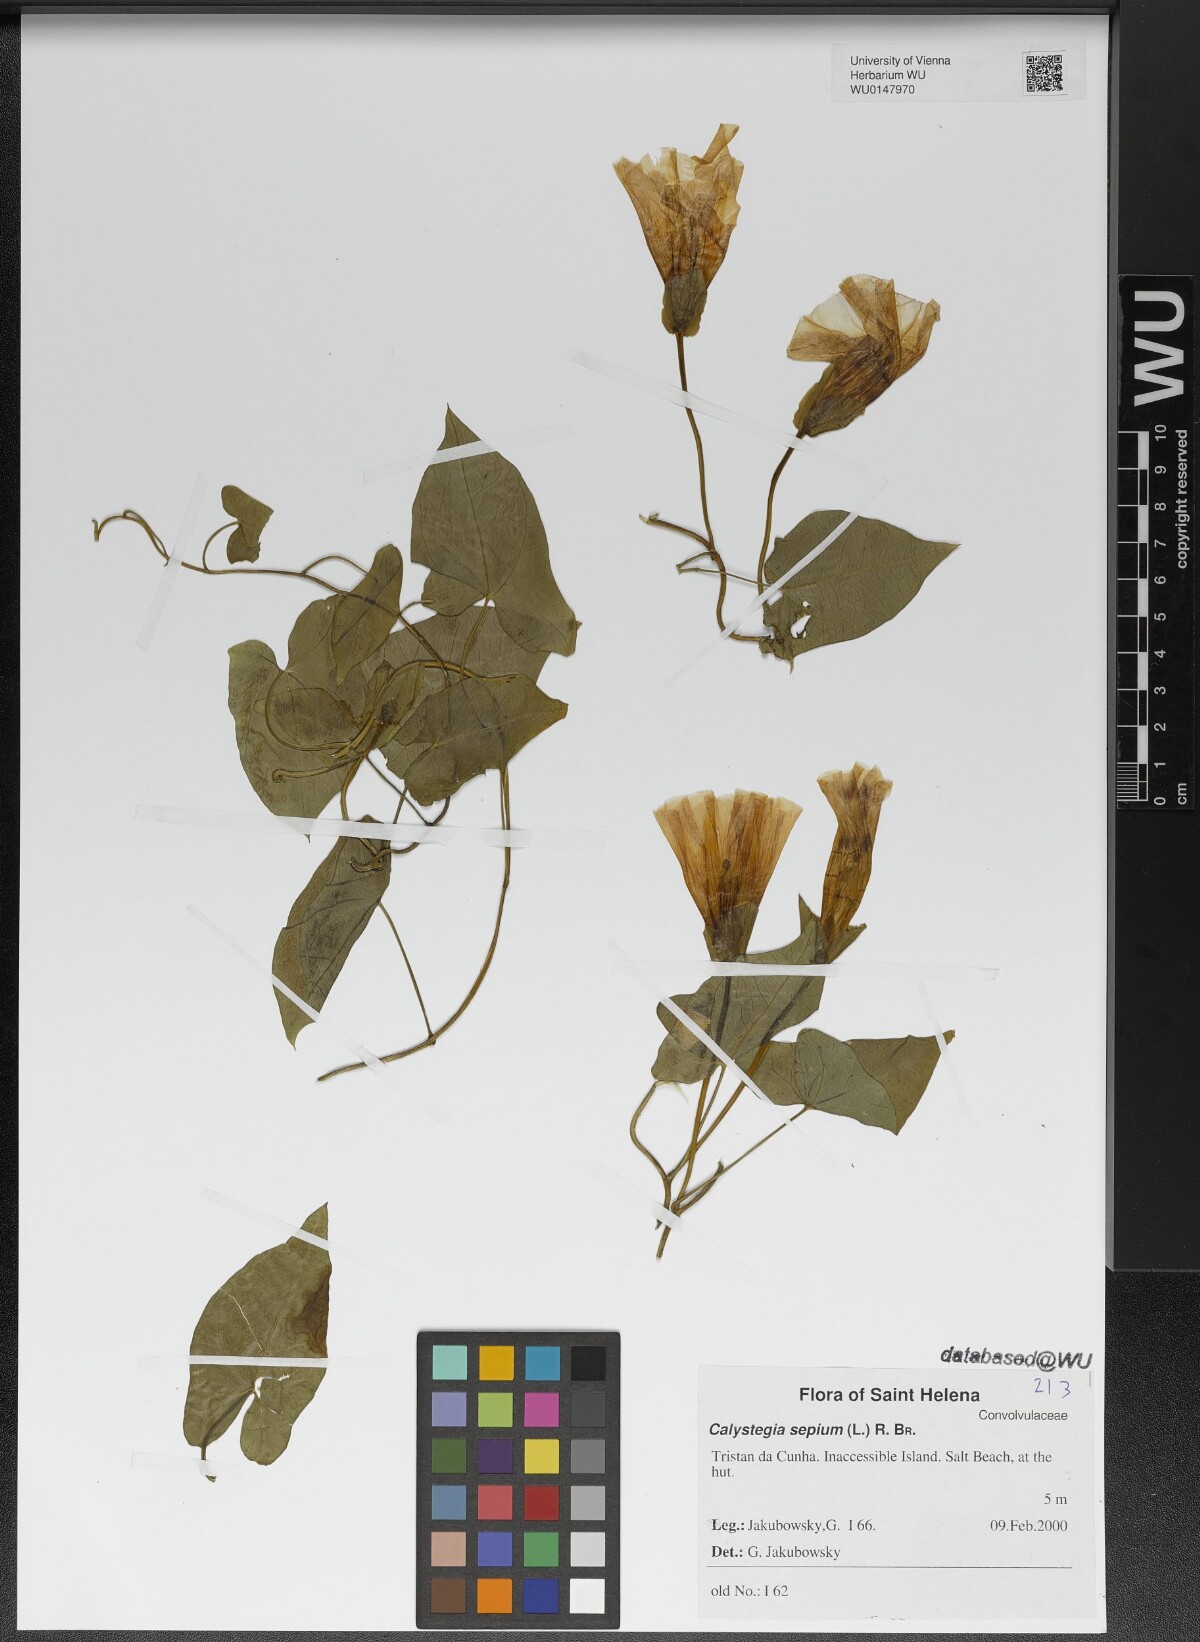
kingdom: Plantae
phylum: Tracheophyta
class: Magnoliopsida
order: Solanales
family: Convolvulaceae
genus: Calystegia
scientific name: Calystegia sepium
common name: Hedge bindweed
